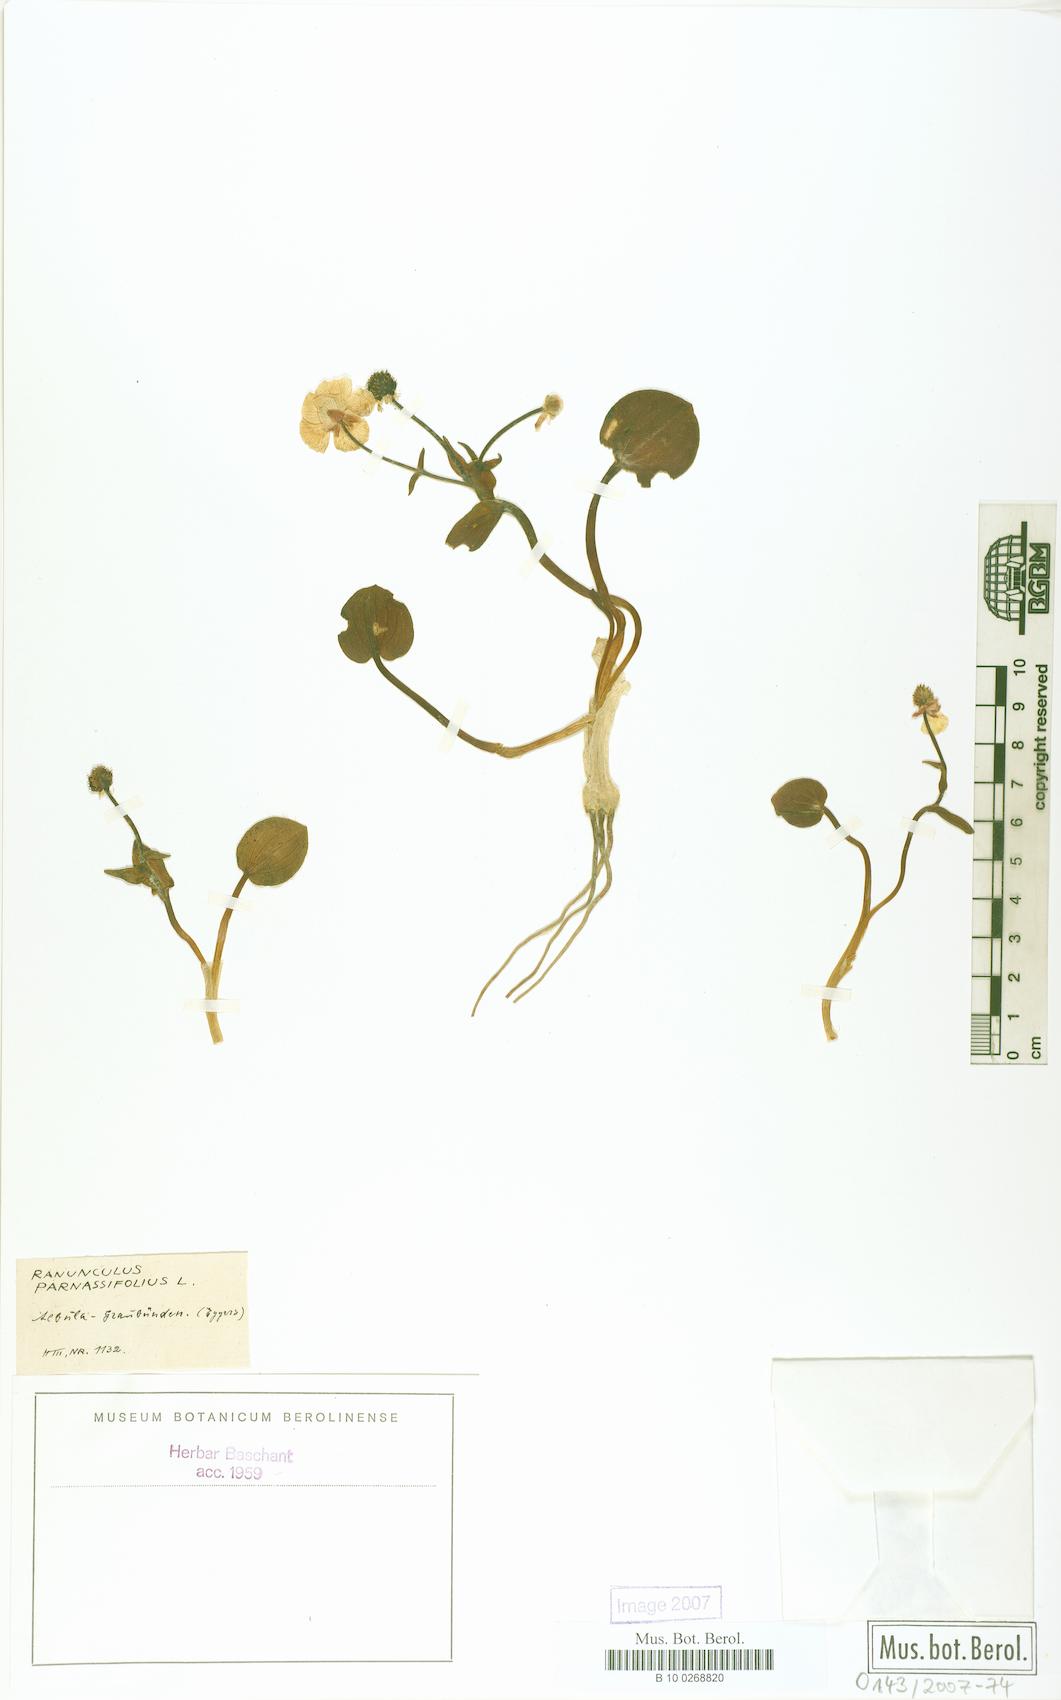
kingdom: Plantae
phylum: Tracheophyta
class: Magnoliopsida
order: Ranunculales
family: Ranunculaceae
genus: Ranunculus
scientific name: Ranunculus parnassiifolius
